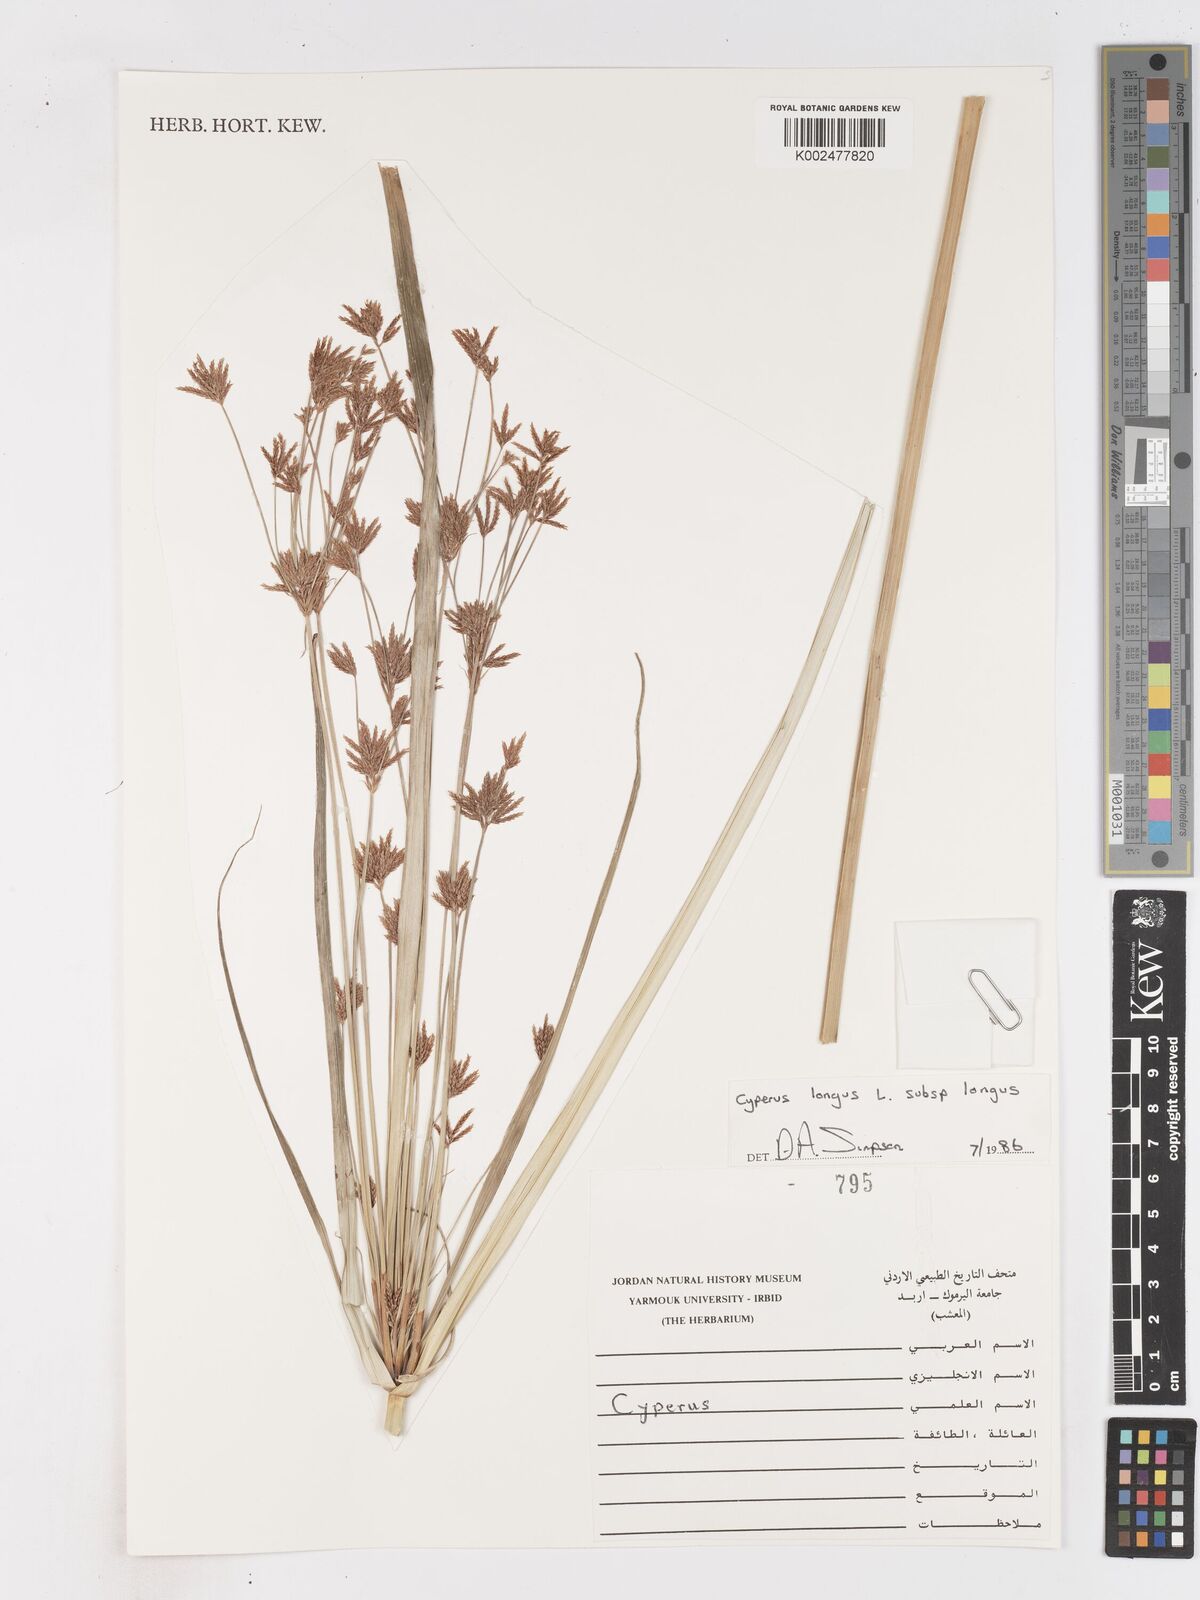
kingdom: Plantae
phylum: Tracheophyta
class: Liliopsida
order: Poales
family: Cyperaceae
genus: Cyperus
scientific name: Cyperus longus
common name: Galingale
